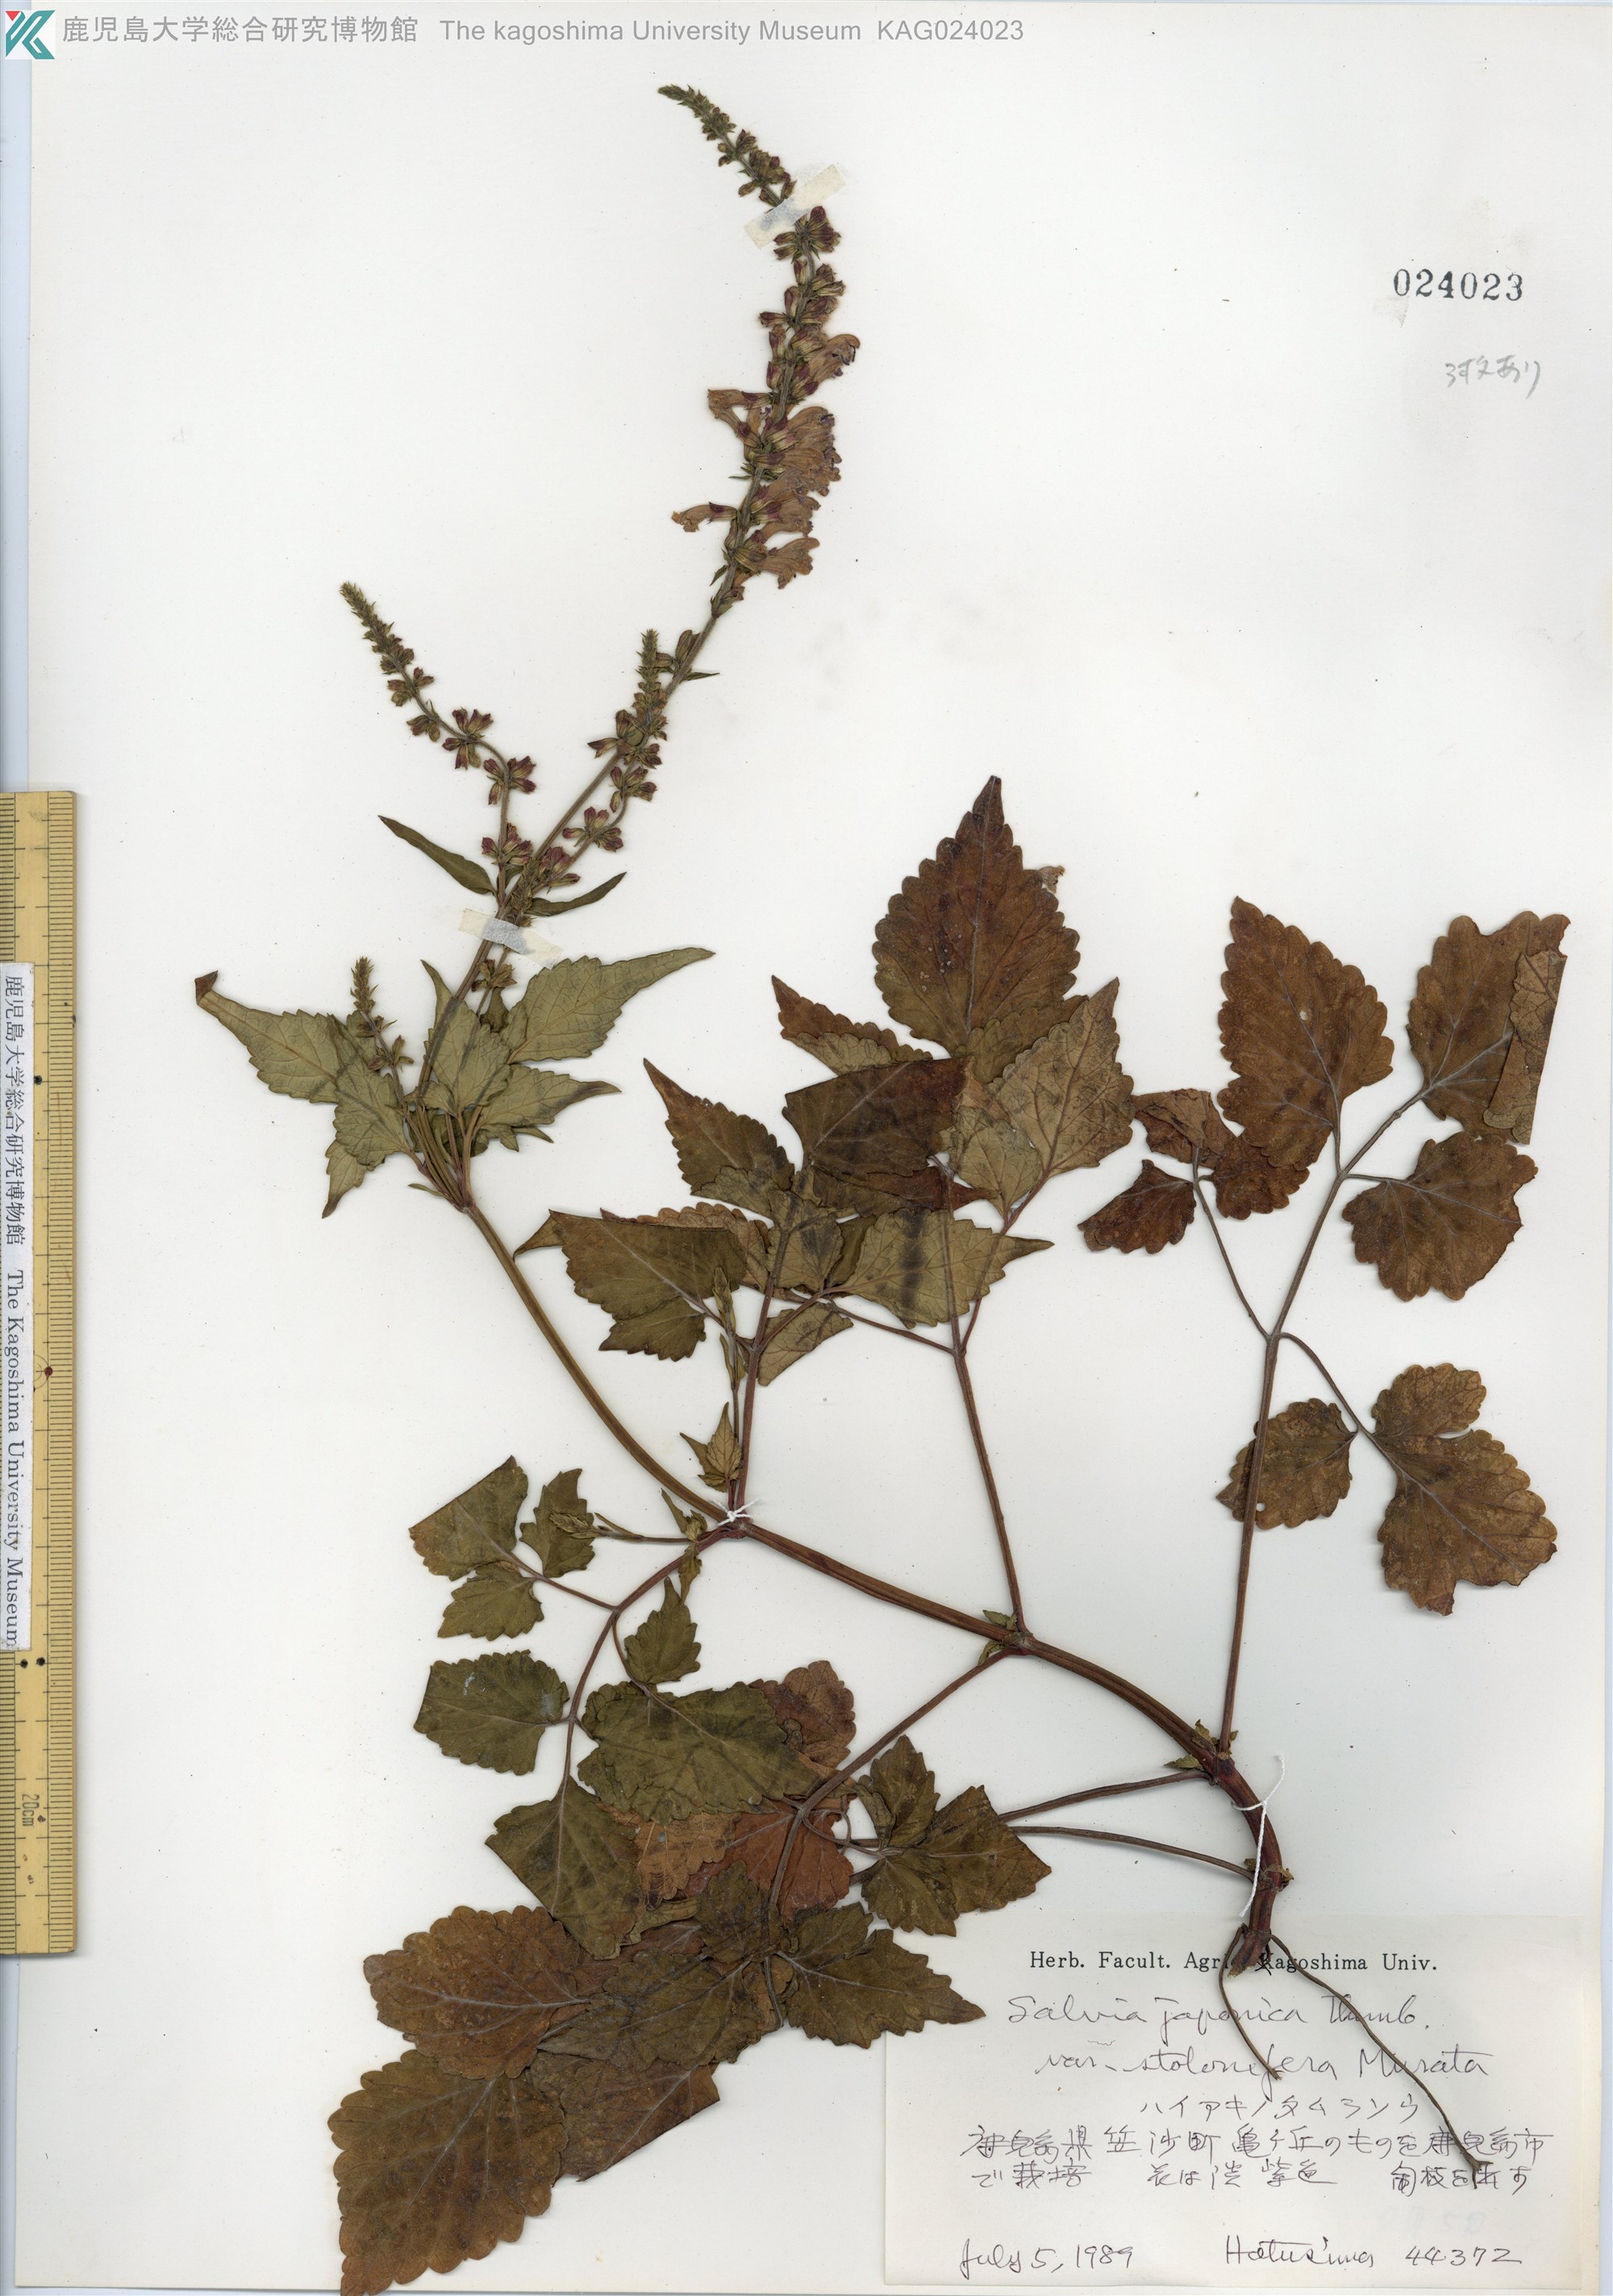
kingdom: Plantae
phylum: Tracheophyta
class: Magnoliopsida
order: Lamiales
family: Lamiaceae
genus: Salvia
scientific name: Salvia japonica
